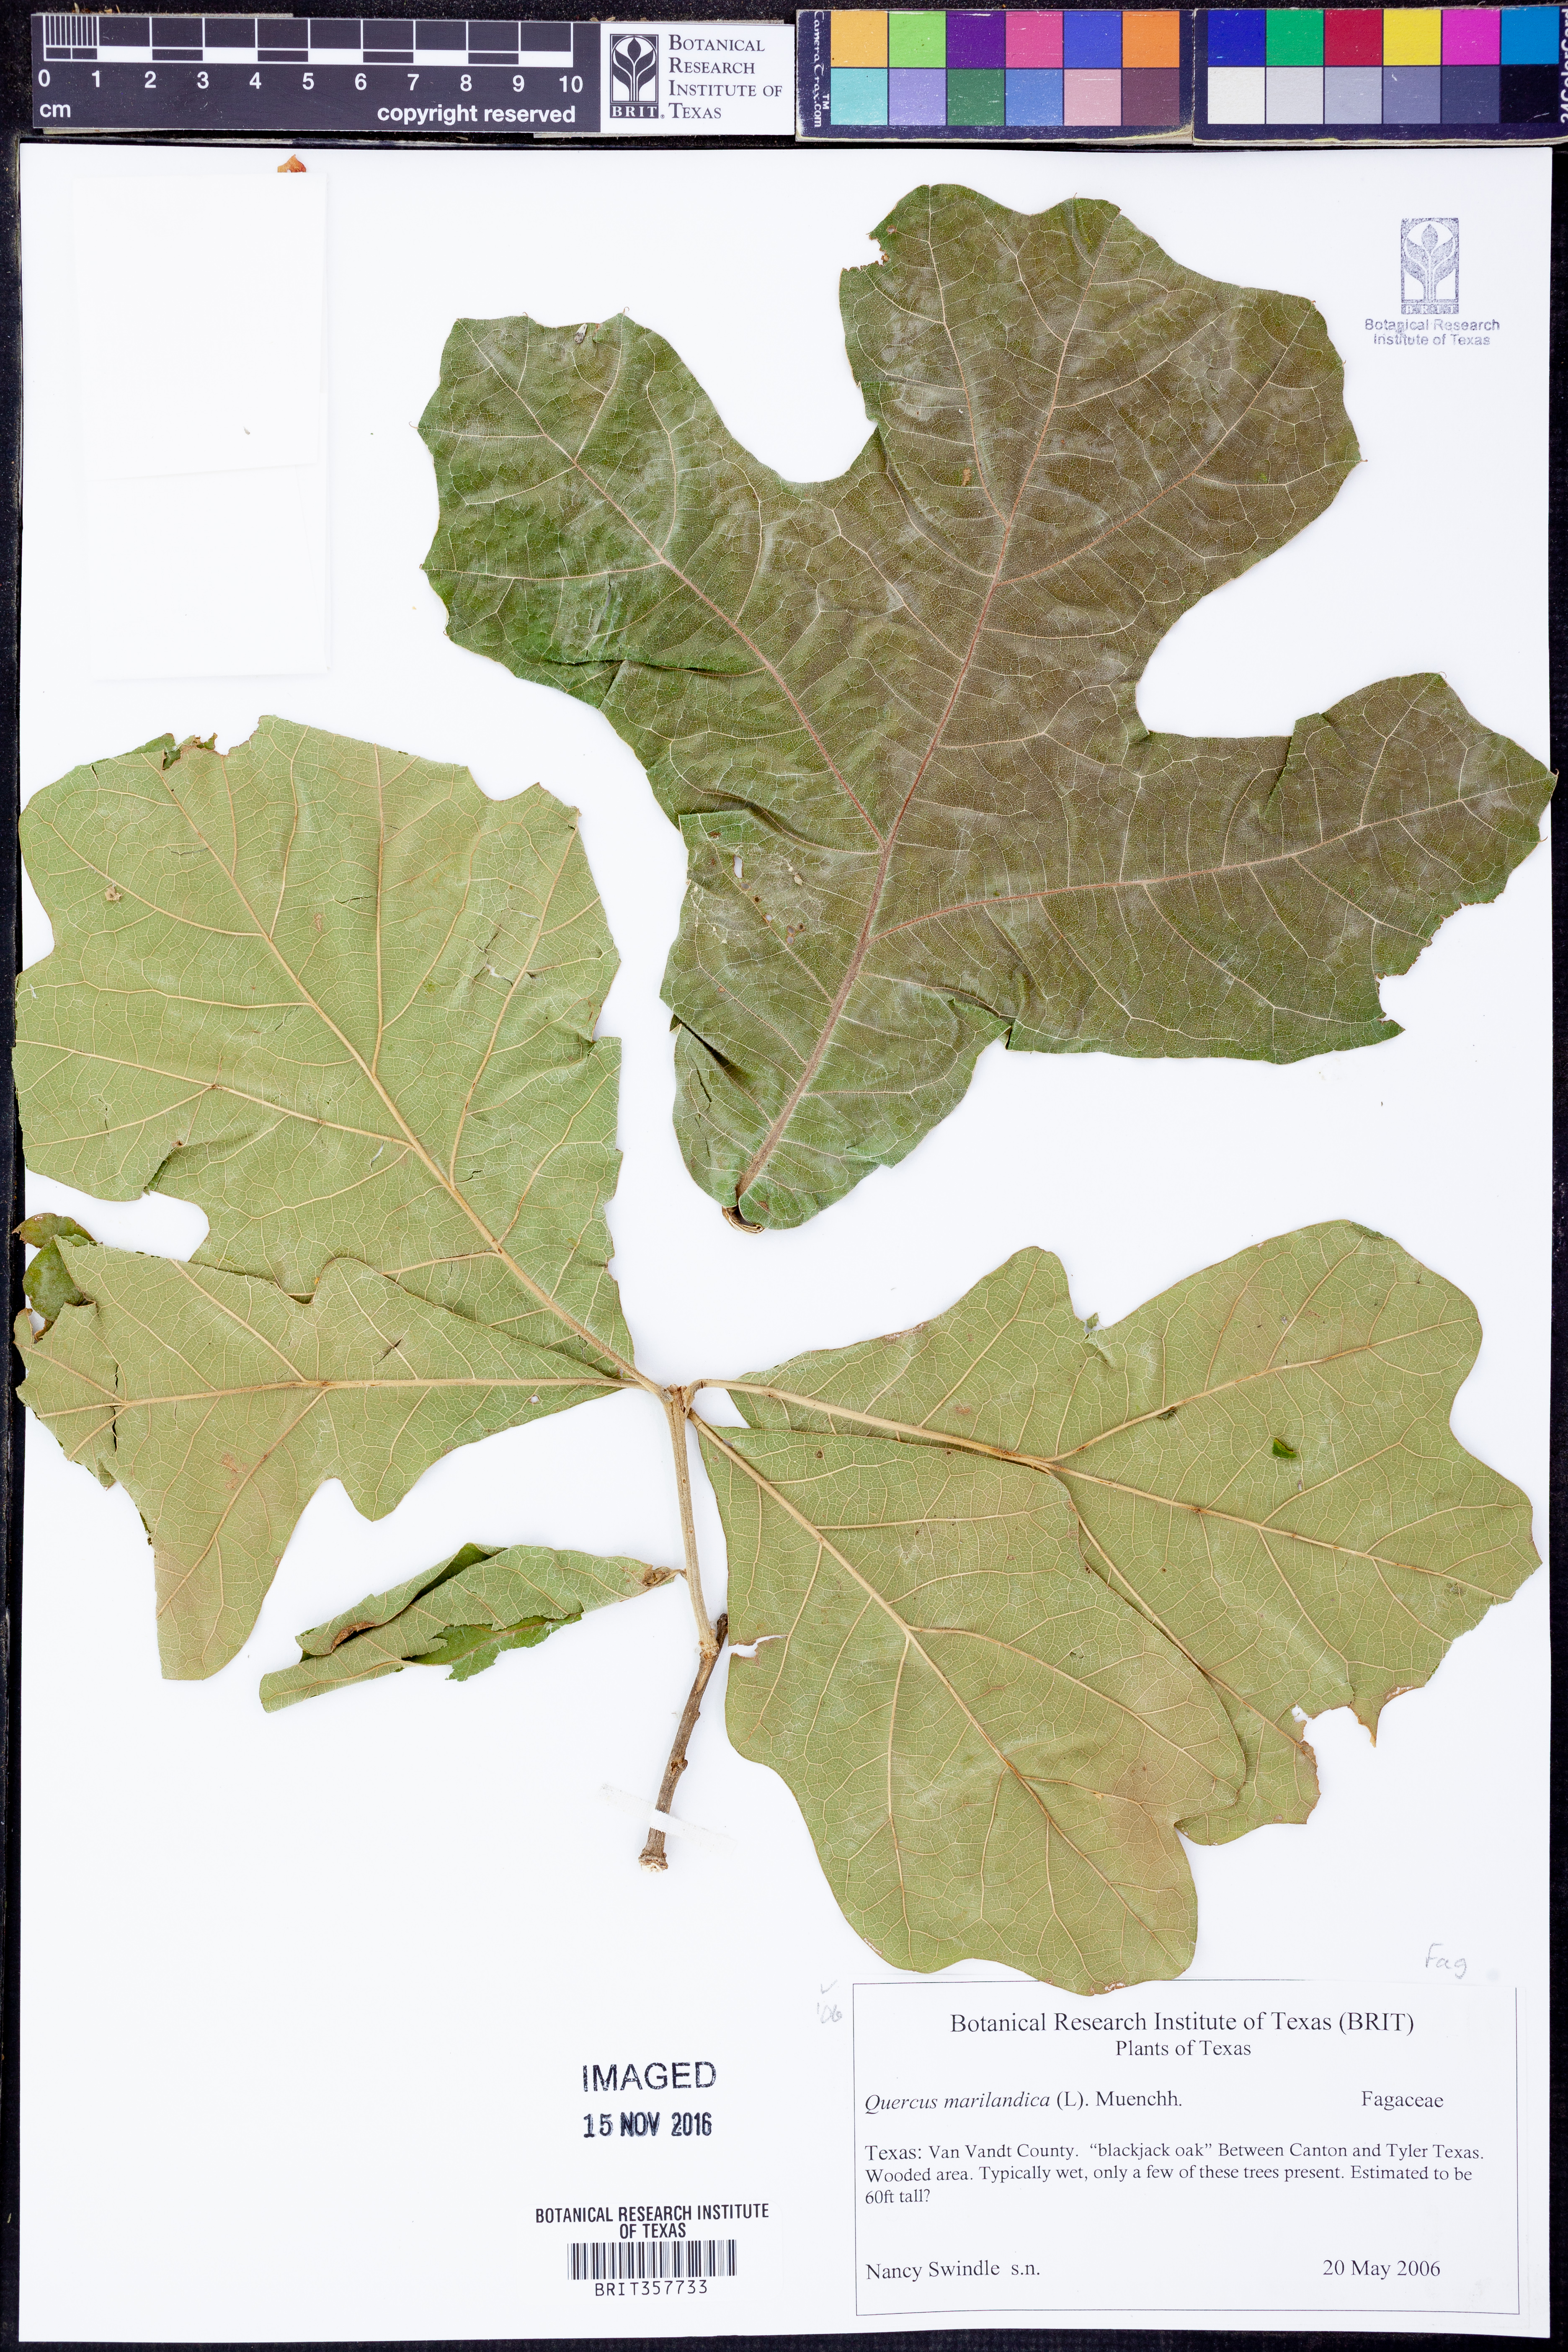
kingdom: Plantae
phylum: Tracheophyta
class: Magnoliopsida
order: Fagales
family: Fagaceae
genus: Quercus
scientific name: Quercus marilandica
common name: Blackjack oak
